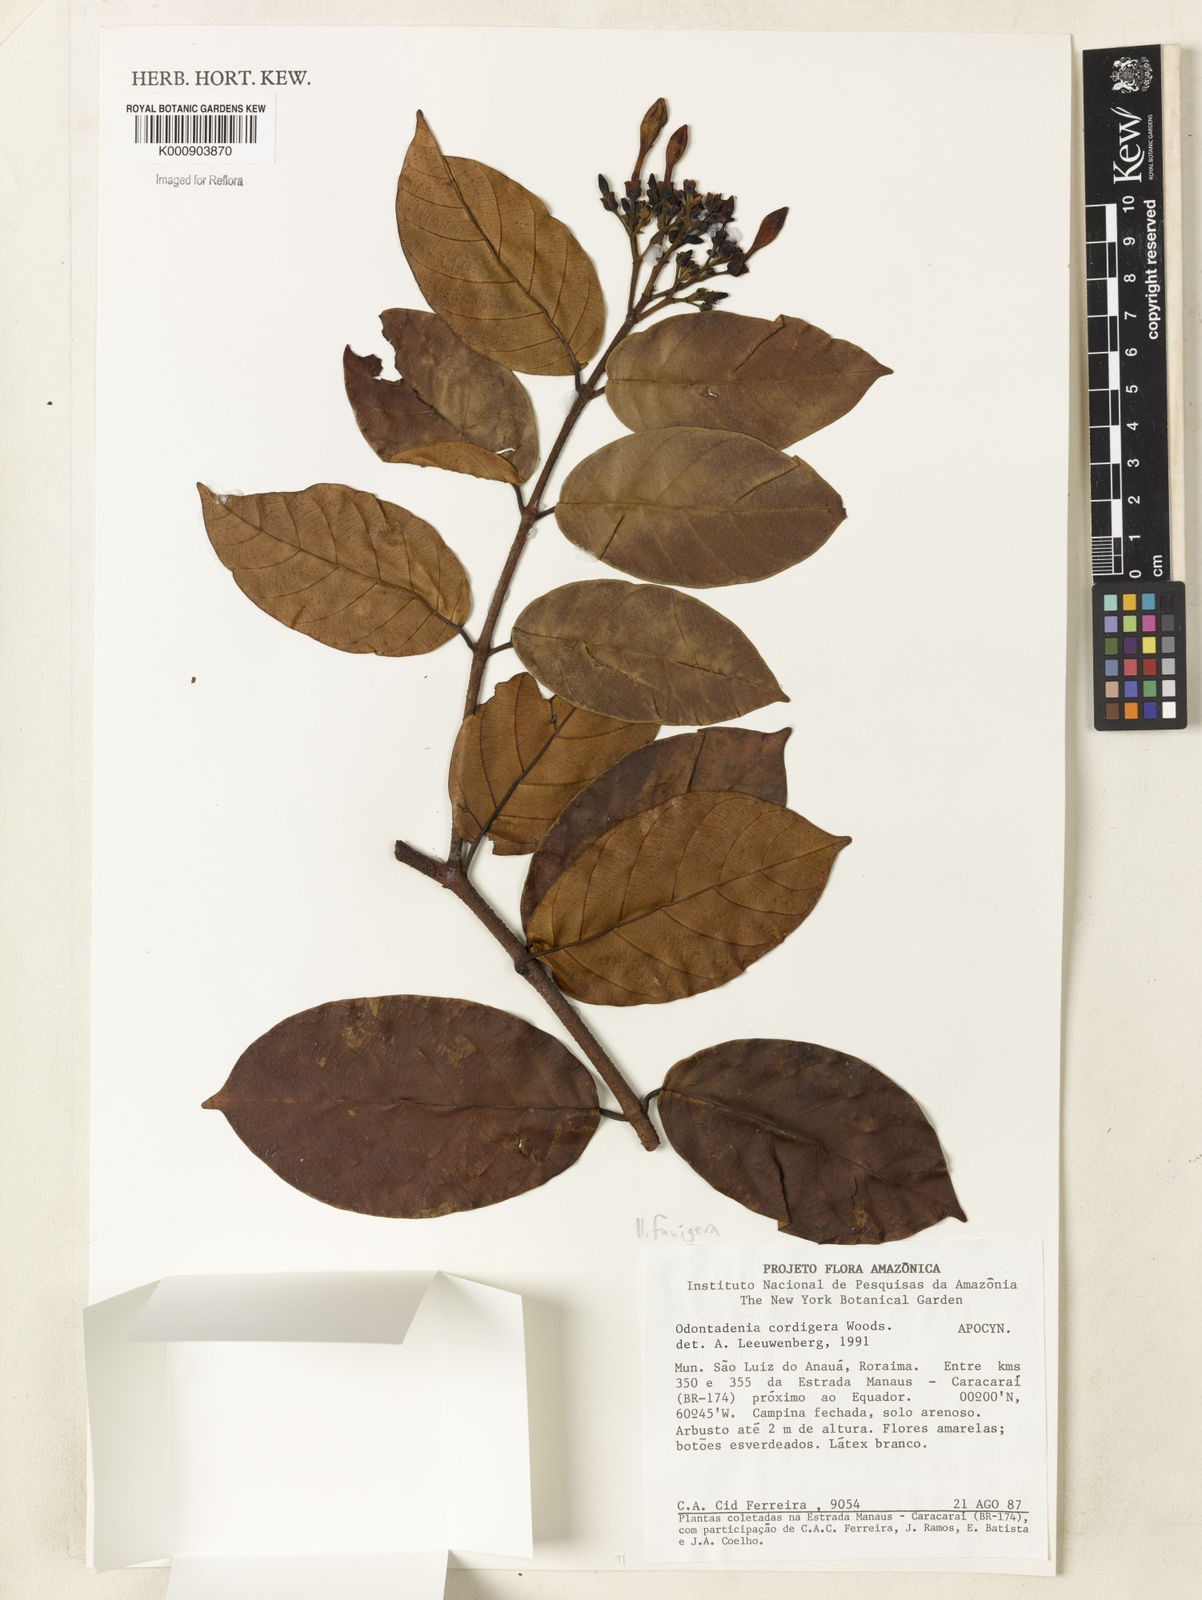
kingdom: Plantae
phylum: Tracheophyta
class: Magnoliopsida
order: Gentianales
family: Apocynaceae
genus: Odontadenia
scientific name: Odontadenia funigera
